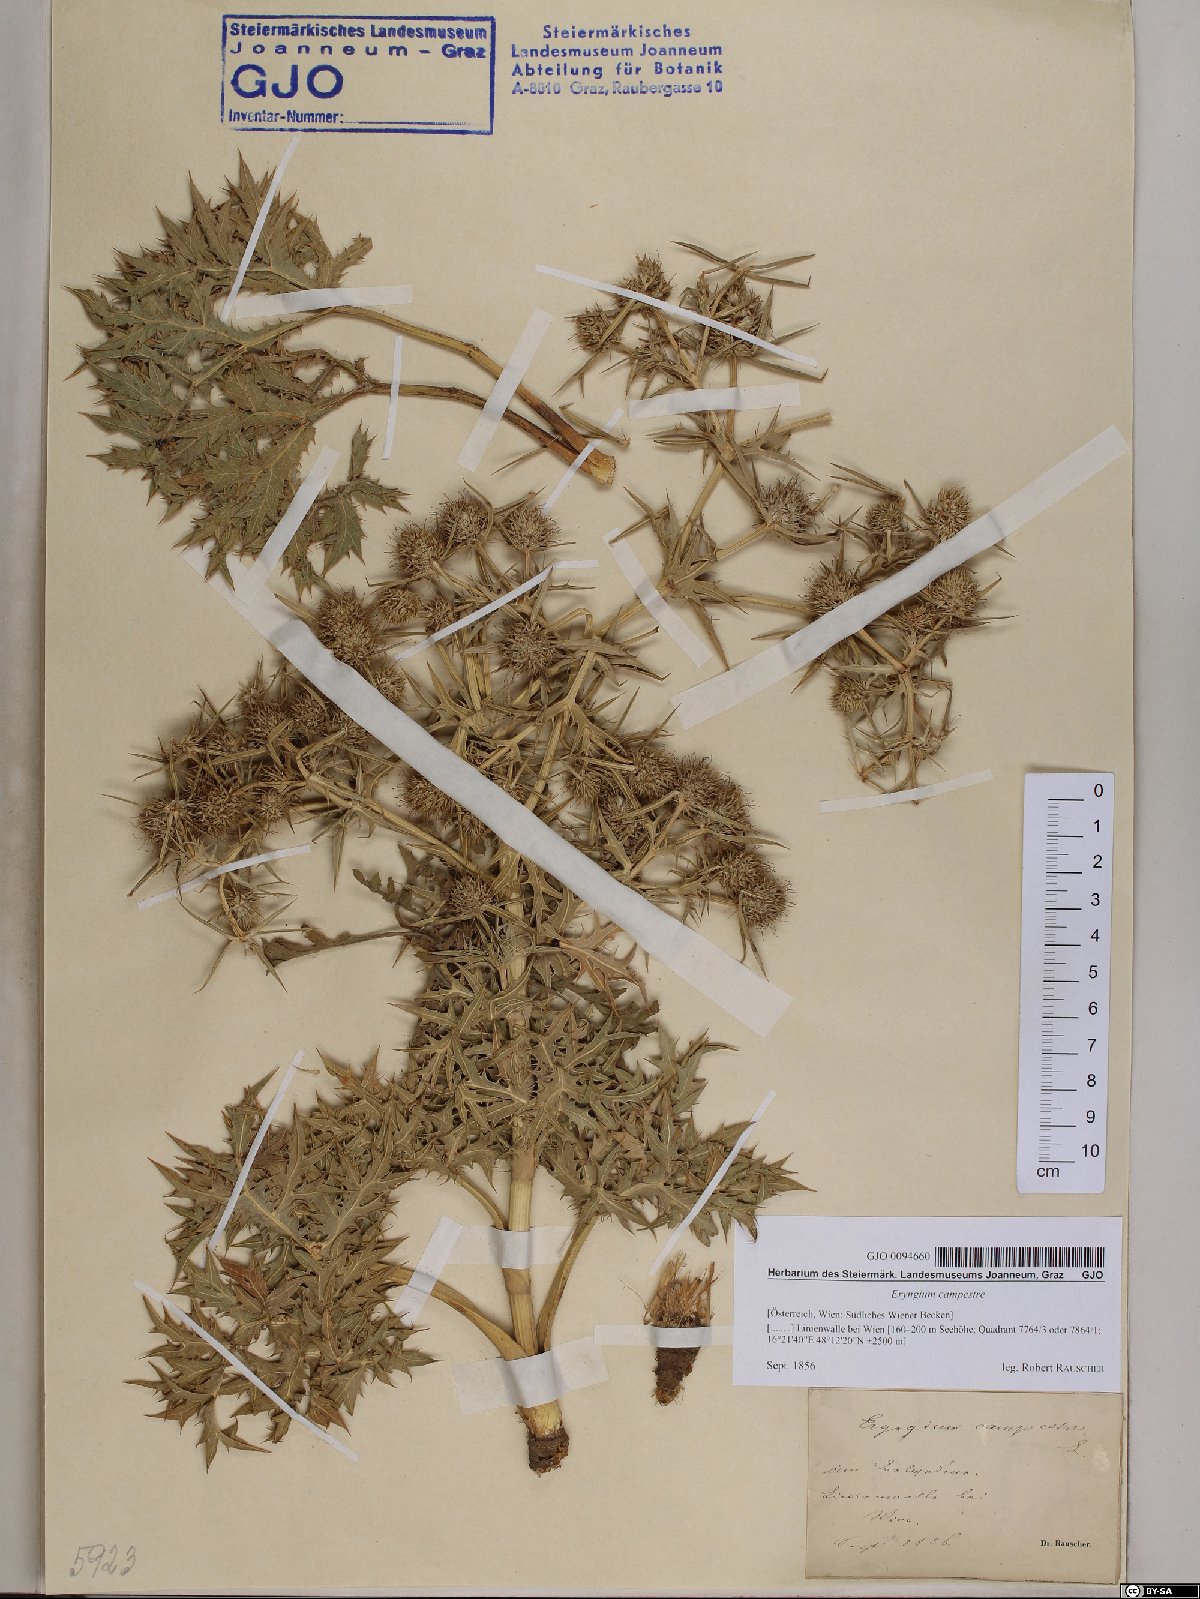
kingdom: Plantae
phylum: Tracheophyta
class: Magnoliopsida
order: Apiales
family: Apiaceae
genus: Eryngium
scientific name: Eryngium campestre
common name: Field eryngo
